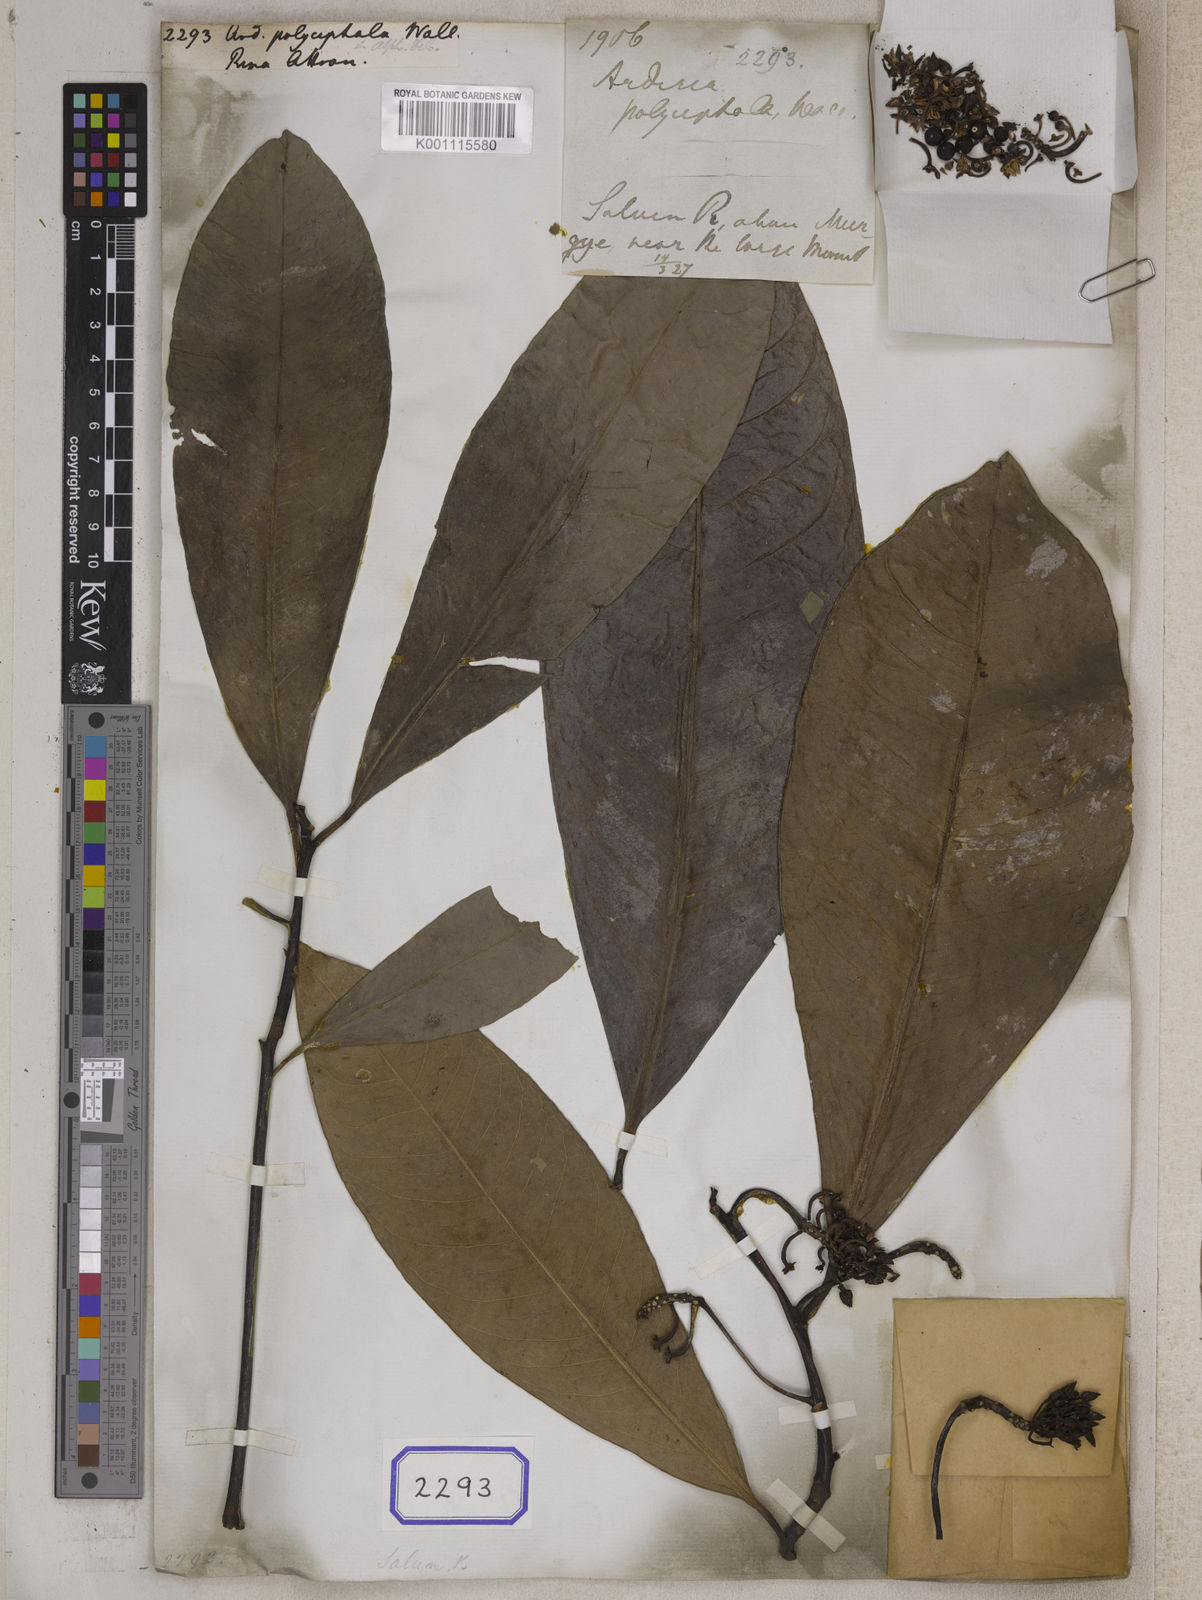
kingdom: Plantae
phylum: Tracheophyta
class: Magnoliopsida
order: Ericales
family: Primulaceae
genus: Ardisia
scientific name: Ardisia
